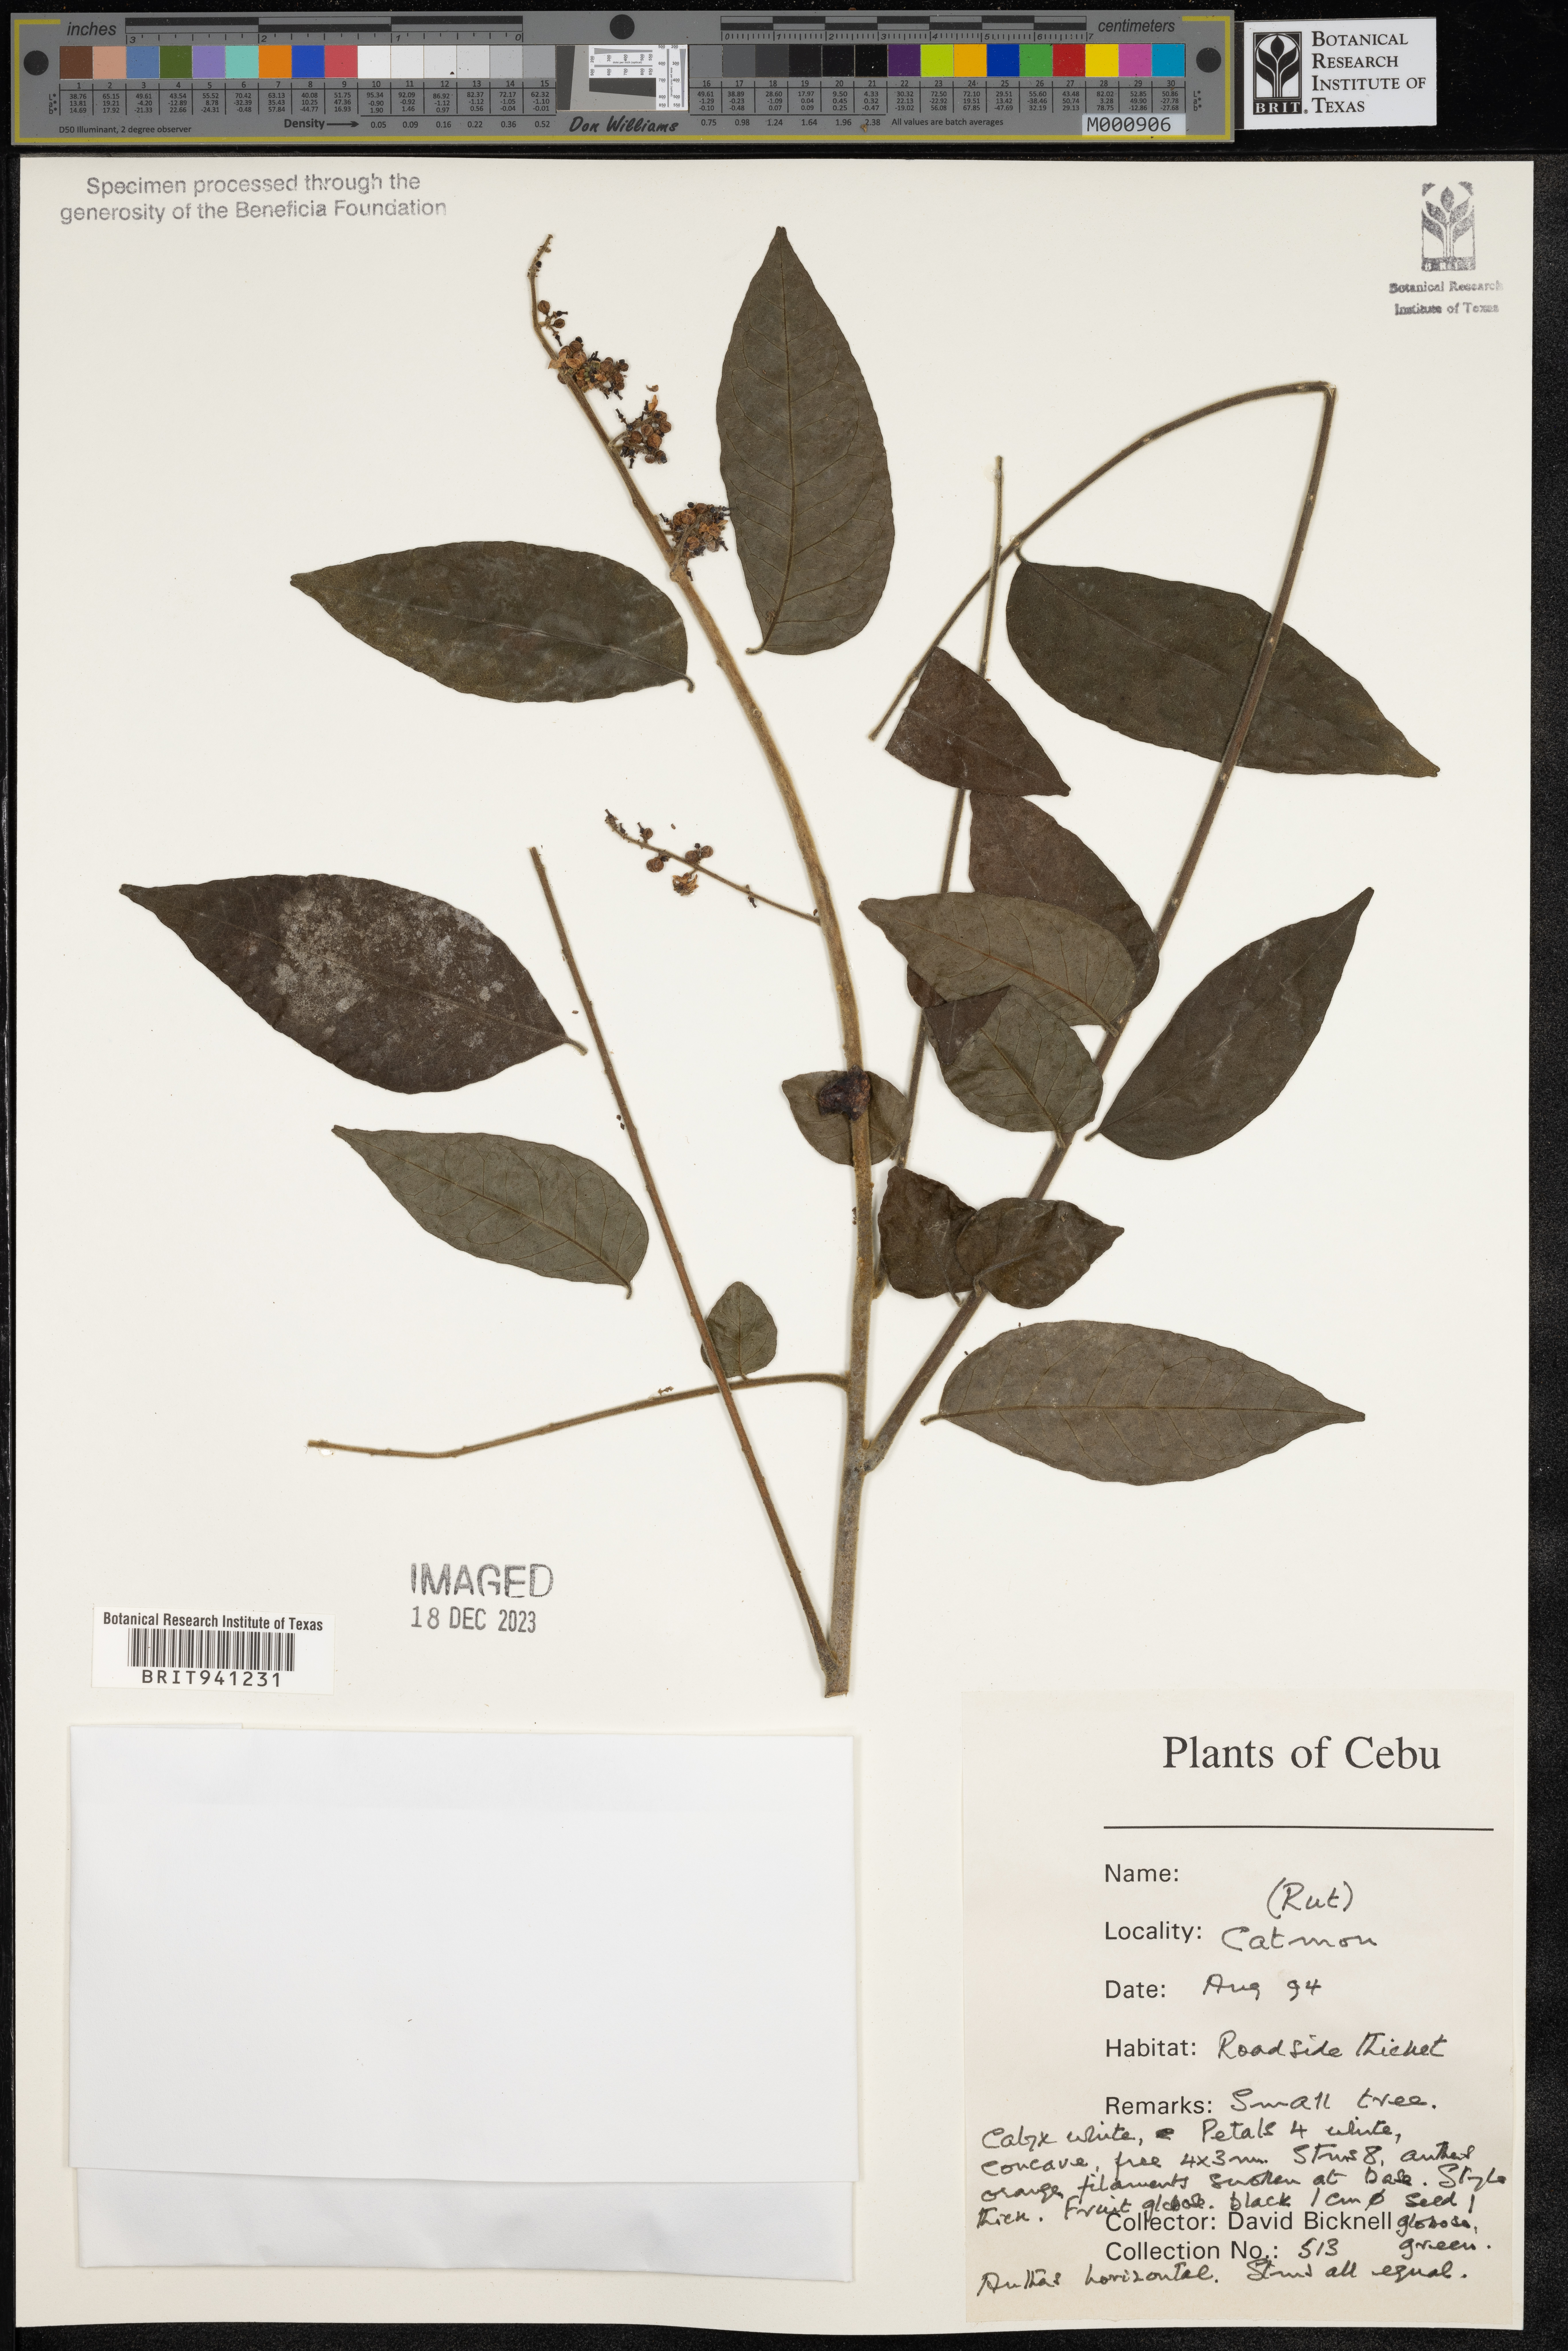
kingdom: Plantae
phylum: Tracheophyta
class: Magnoliopsida
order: Sapindales
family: Rutaceae
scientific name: Rutaceae
